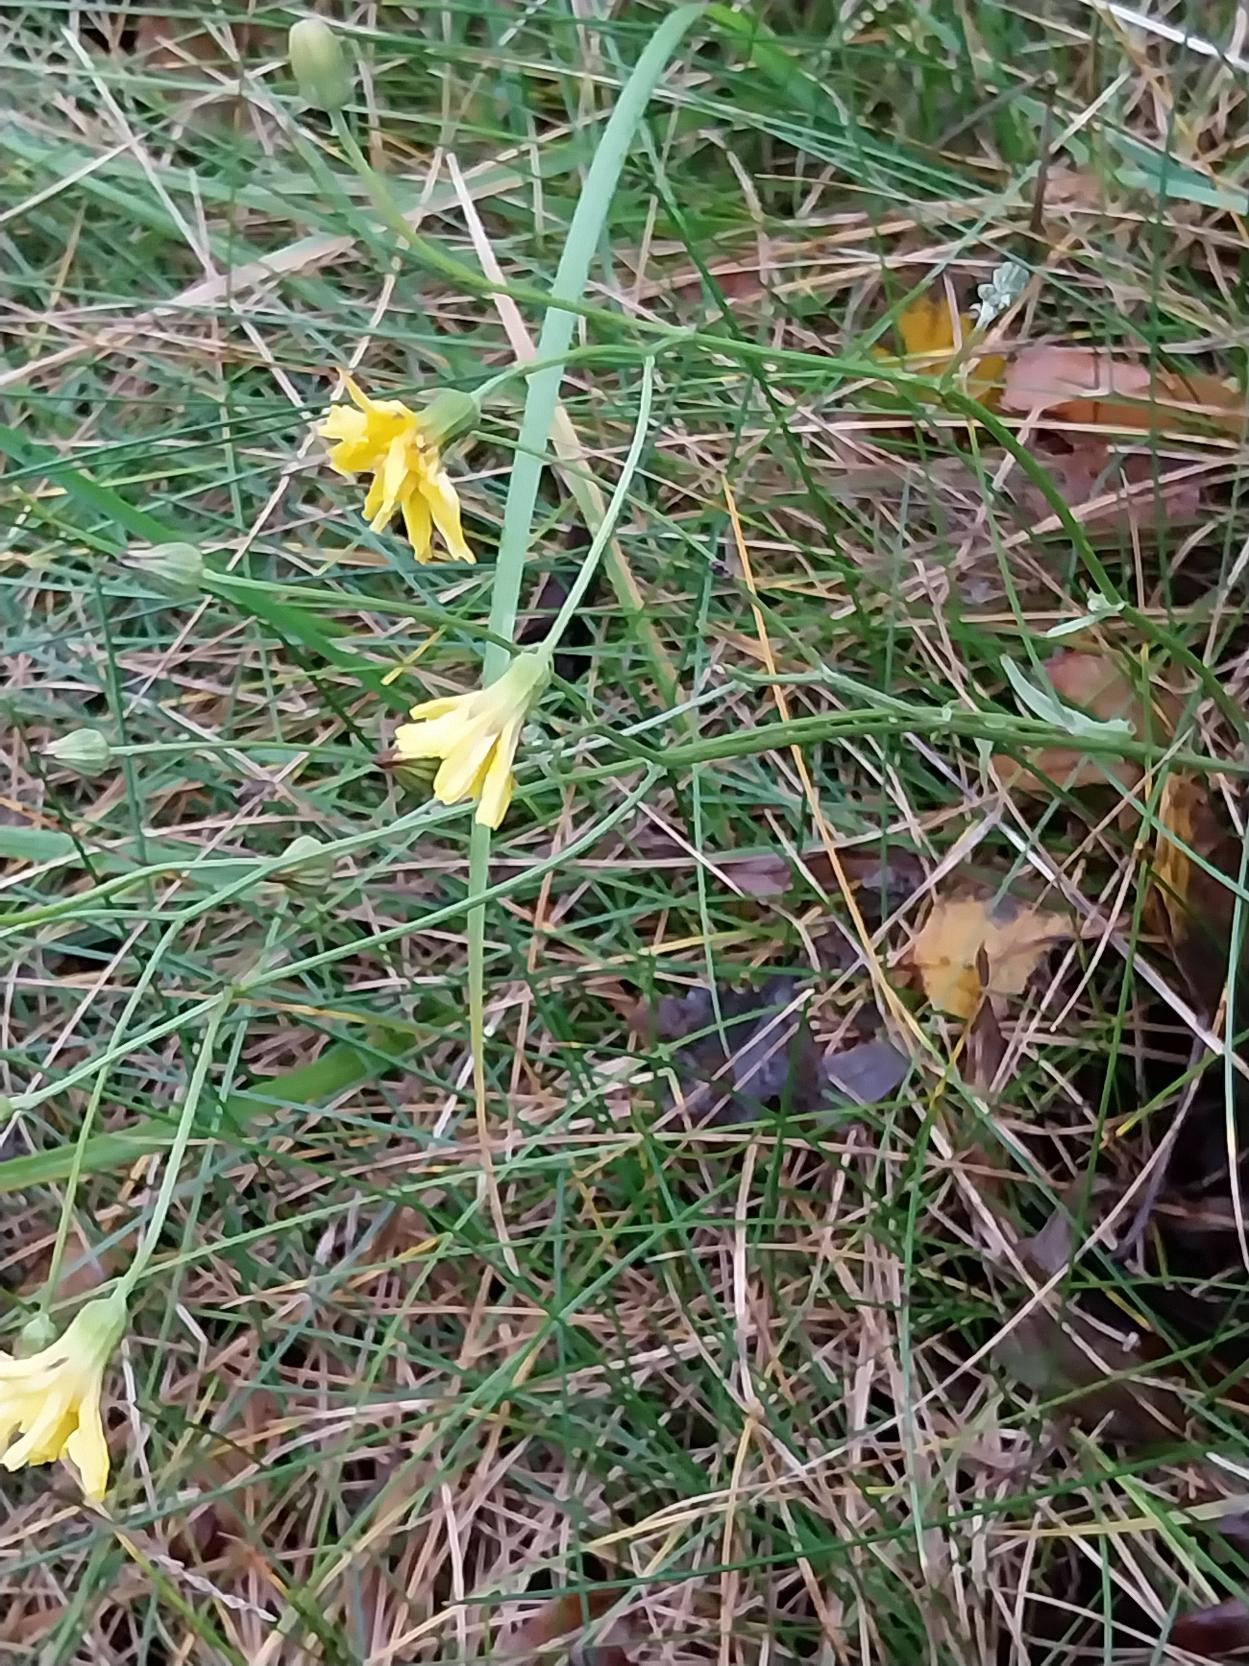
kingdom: Plantae
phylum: Tracheophyta
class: Magnoliopsida
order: Asterales
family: Asteraceae
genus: Crepis
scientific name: Crepis capillaris
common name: Grøn høgeskæg
